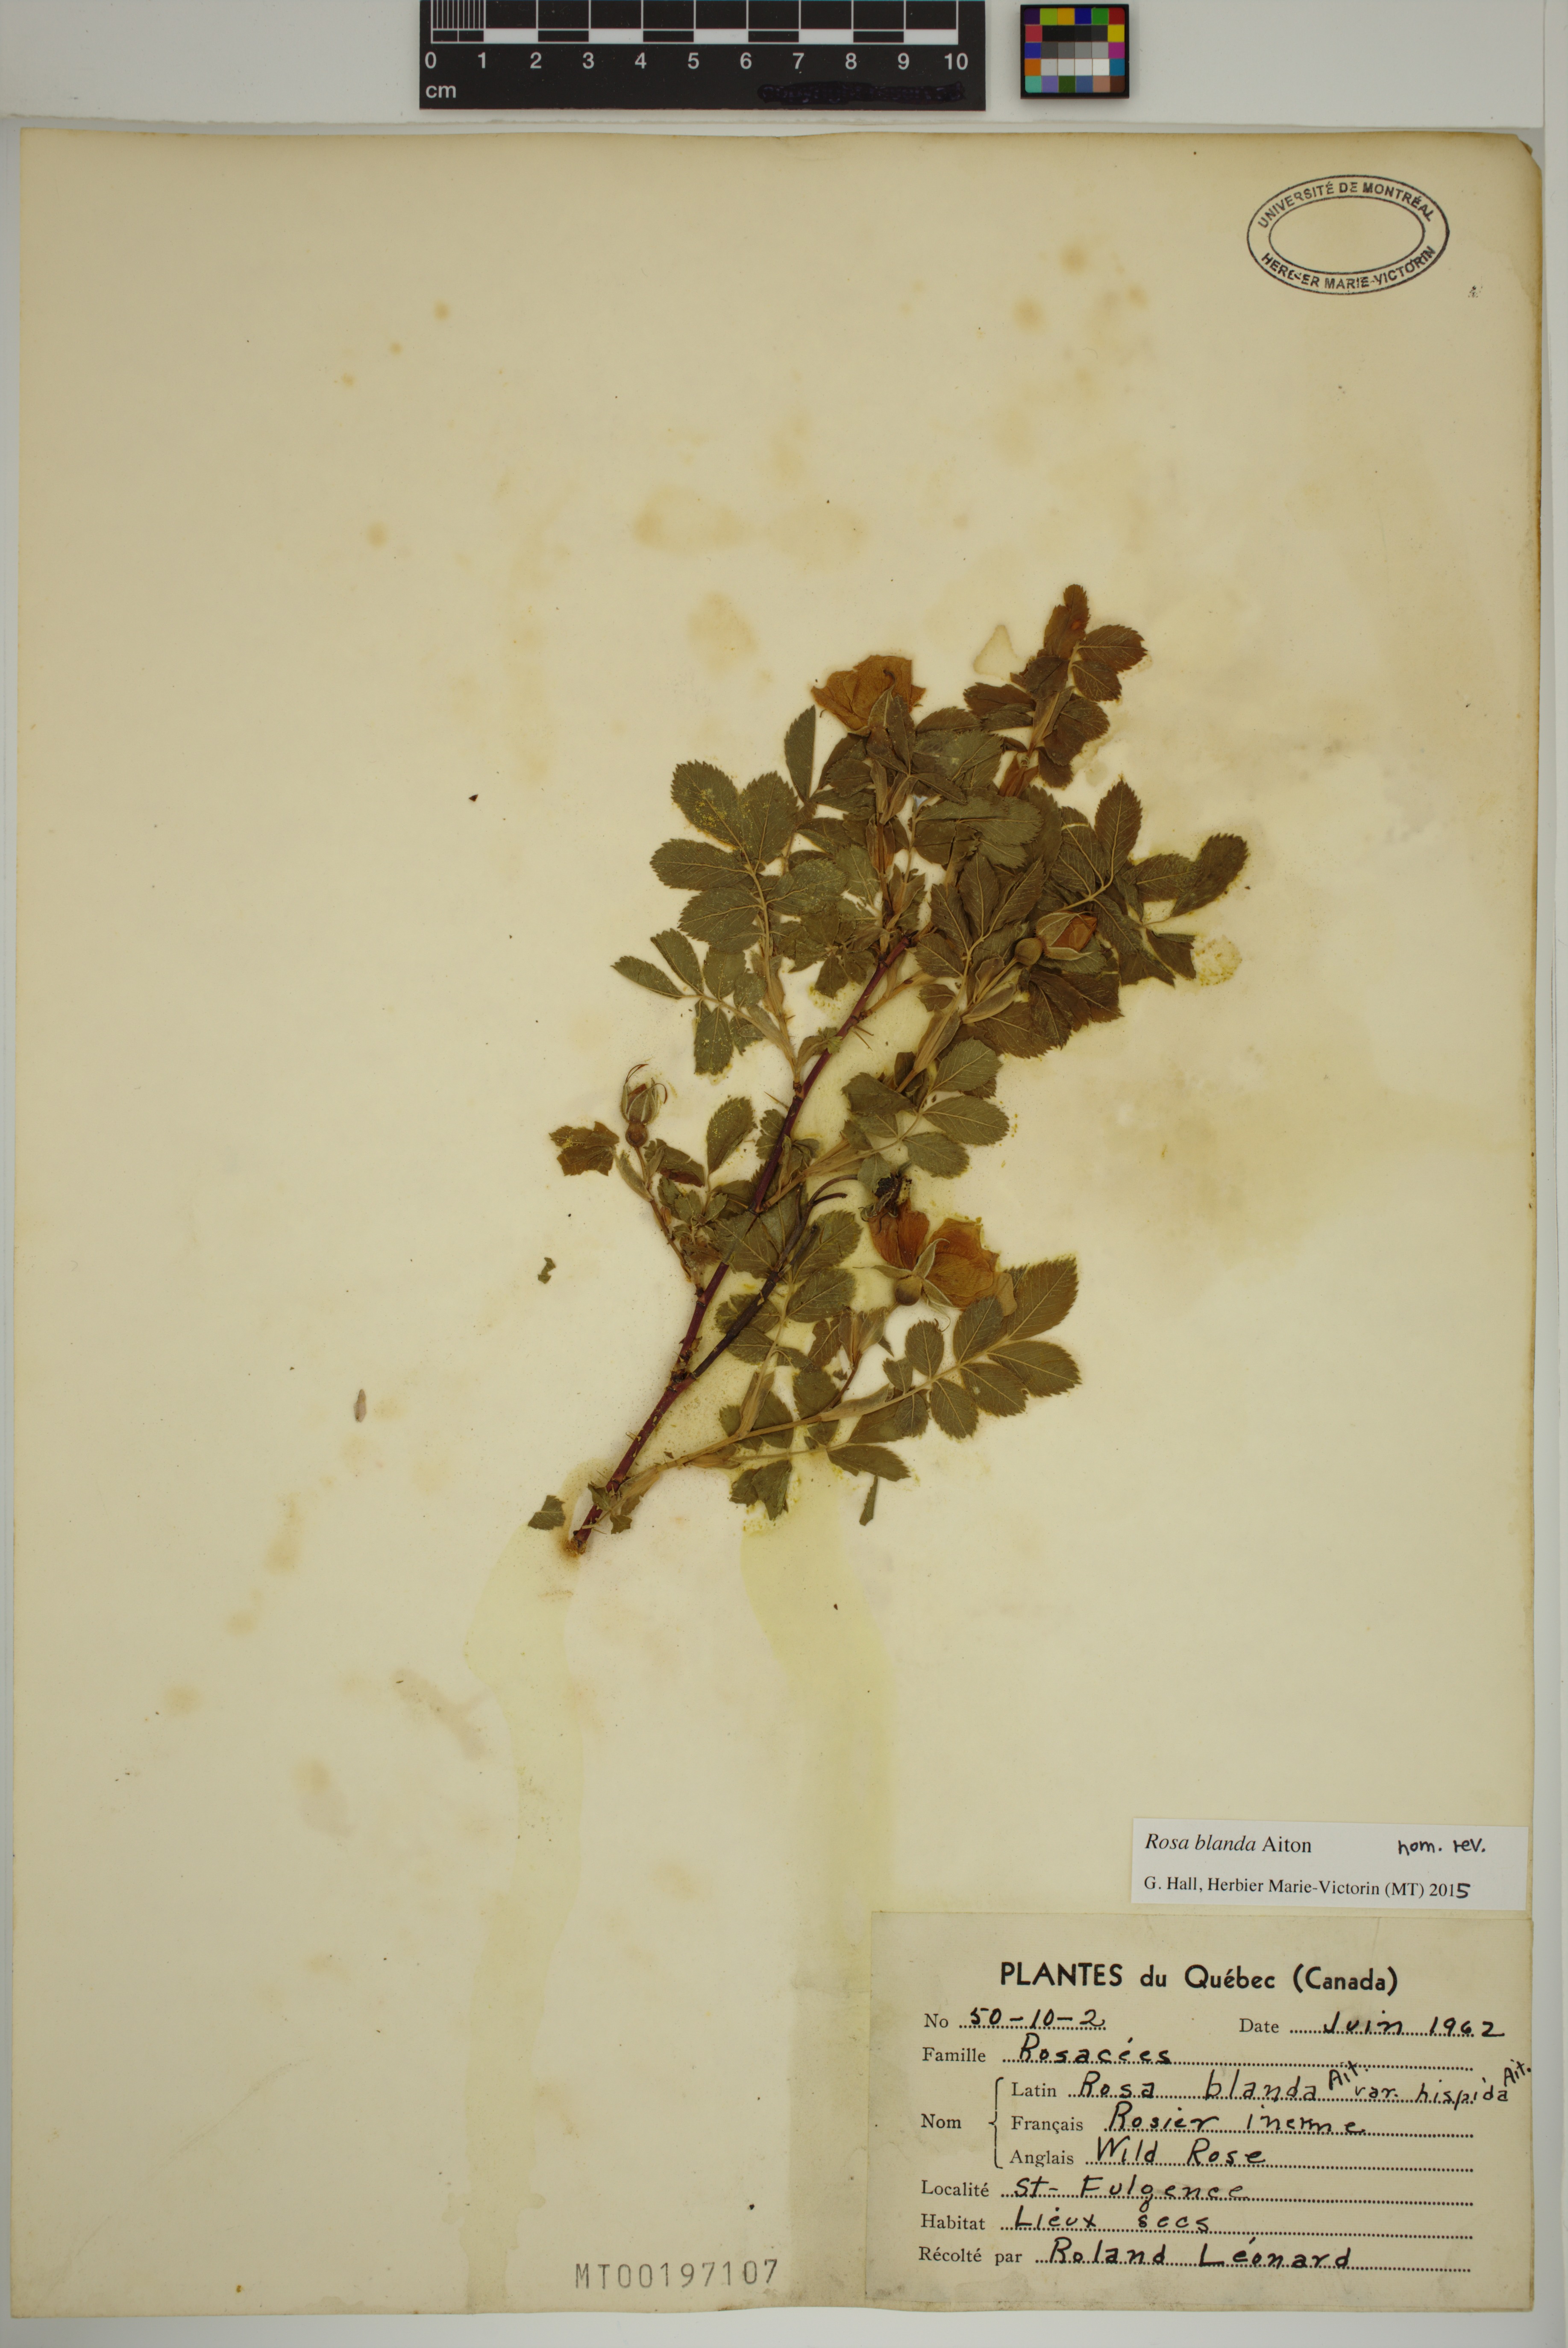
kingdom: Plantae
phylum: Tracheophyta
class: Magnoliopsida
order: Rosales
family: Rosaceae
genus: Rosa
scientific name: Rosa blanda
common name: Smooth rose
